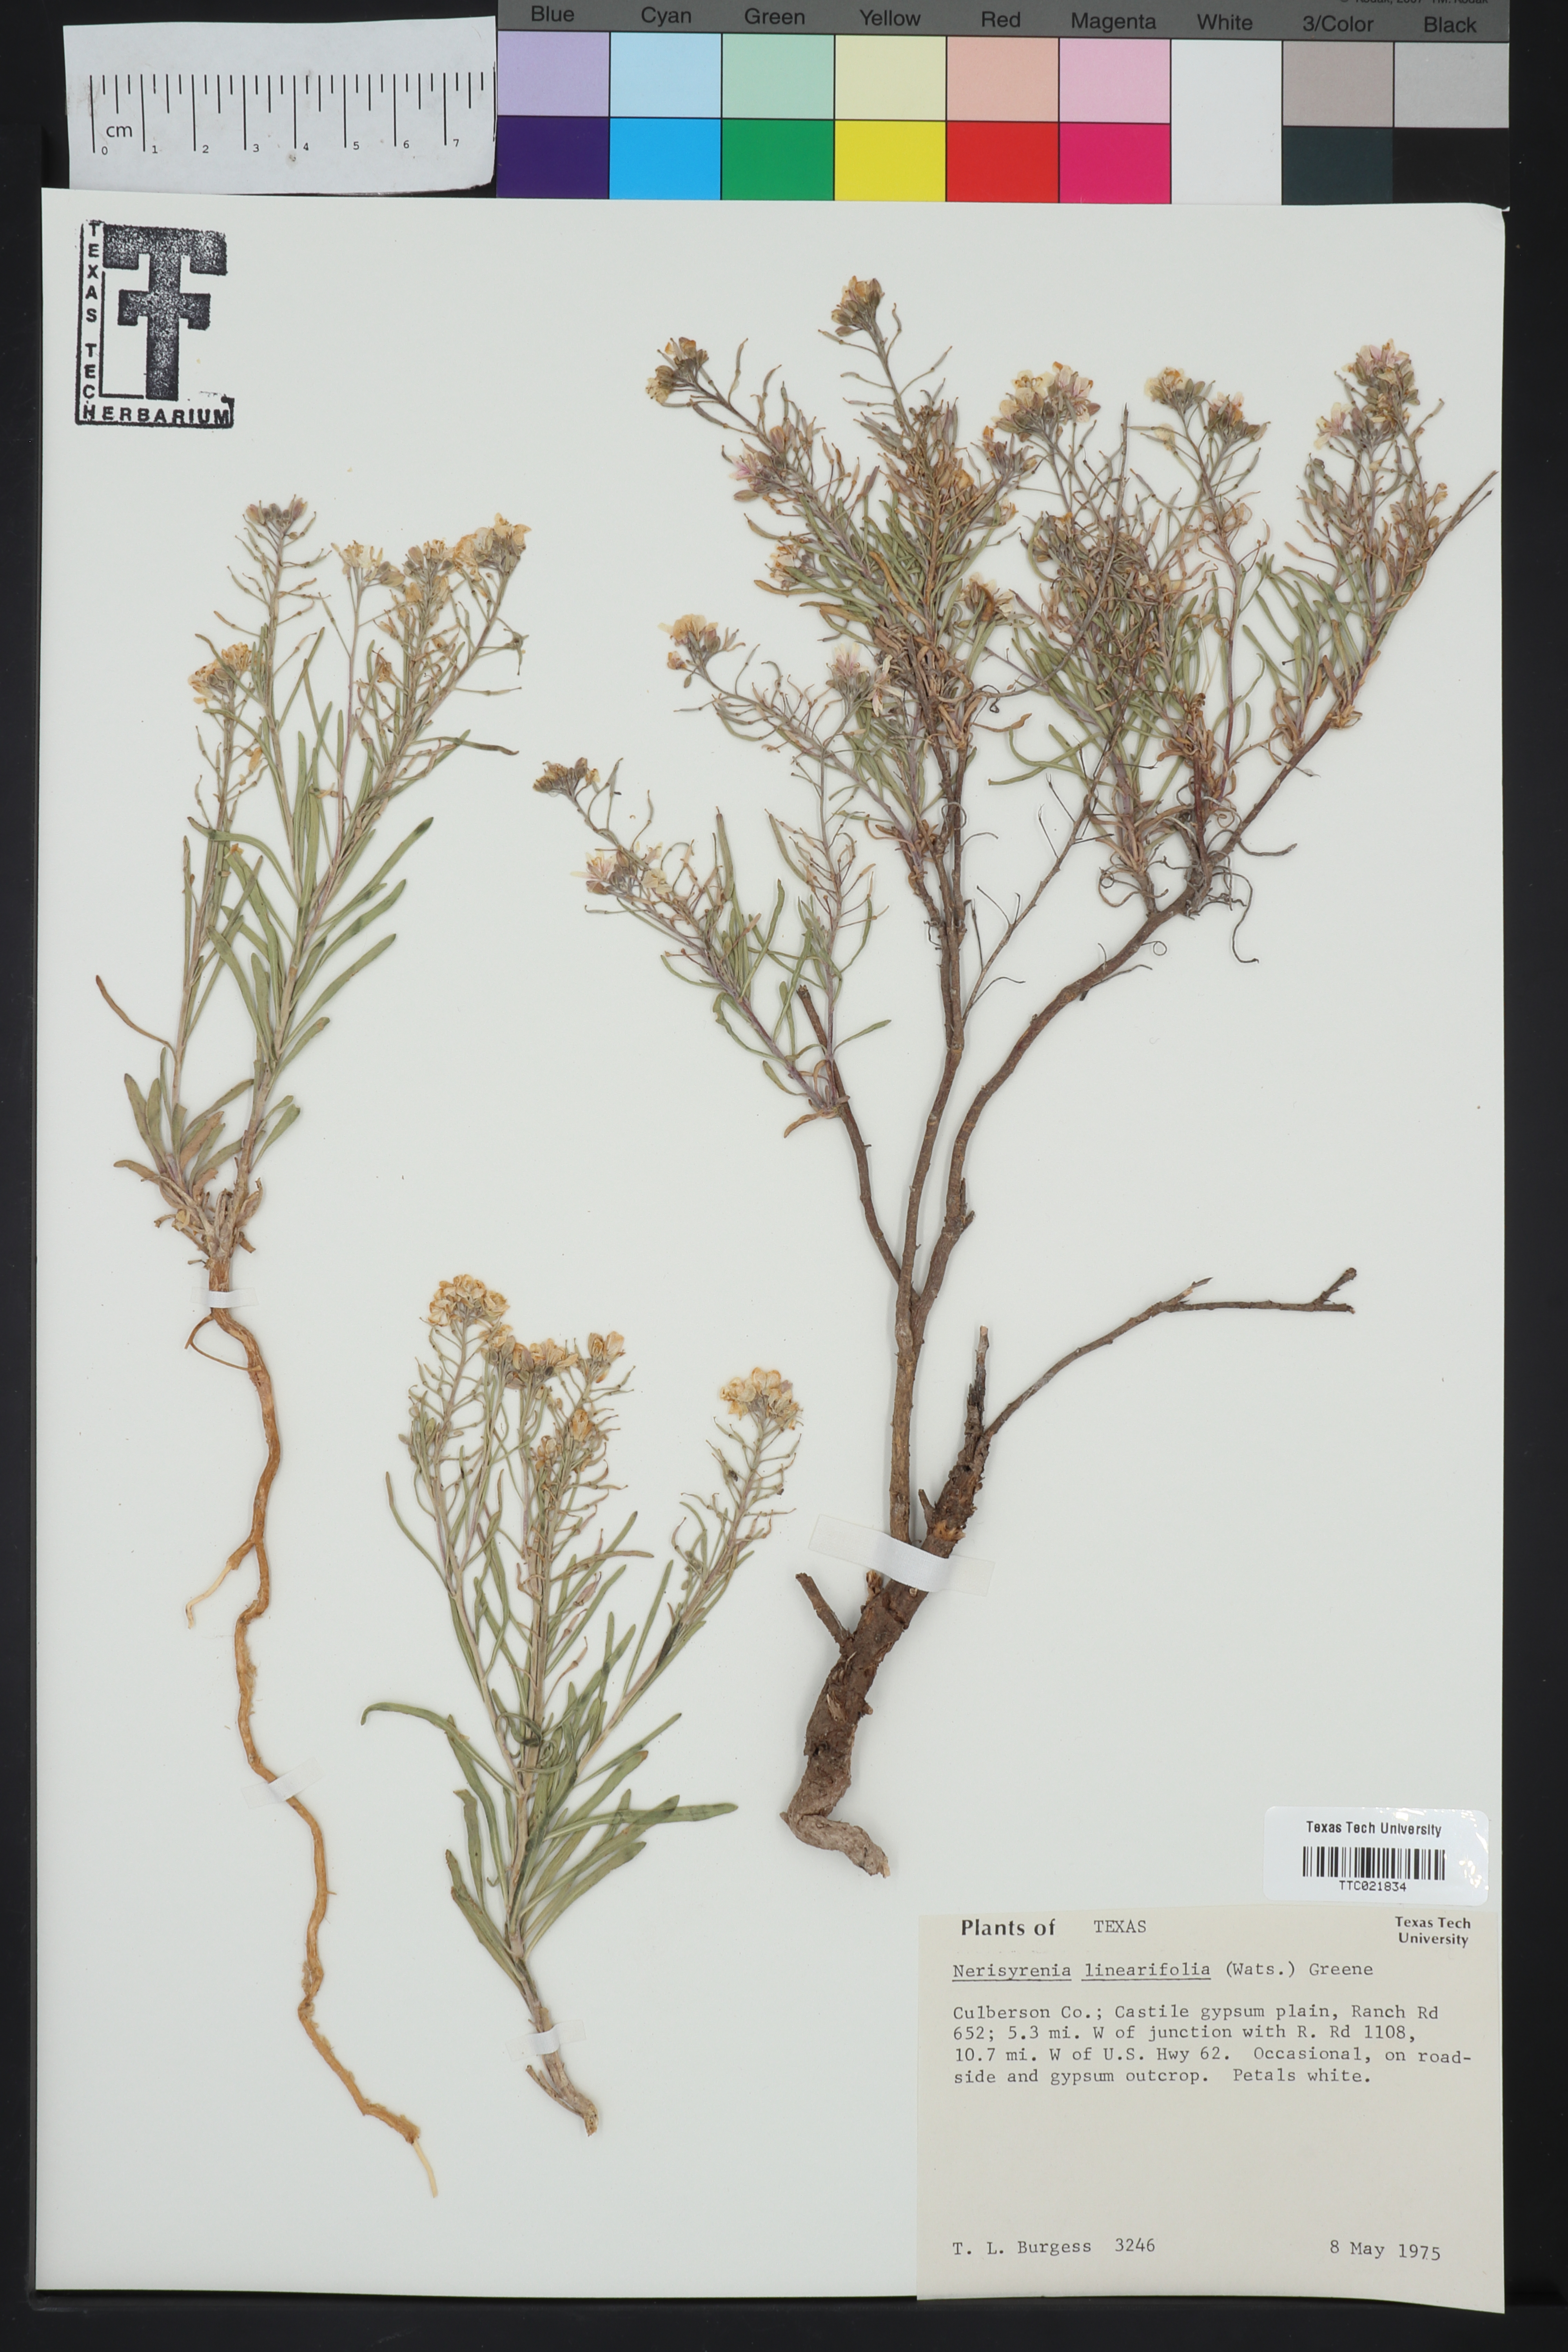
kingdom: Plantae
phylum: Tracheophyta
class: Magnoliopsida
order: Brassicales
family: Brassicaceae
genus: Nerisyrenia
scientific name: Nerisyrenia linearifolia
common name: White sands fan mustard
